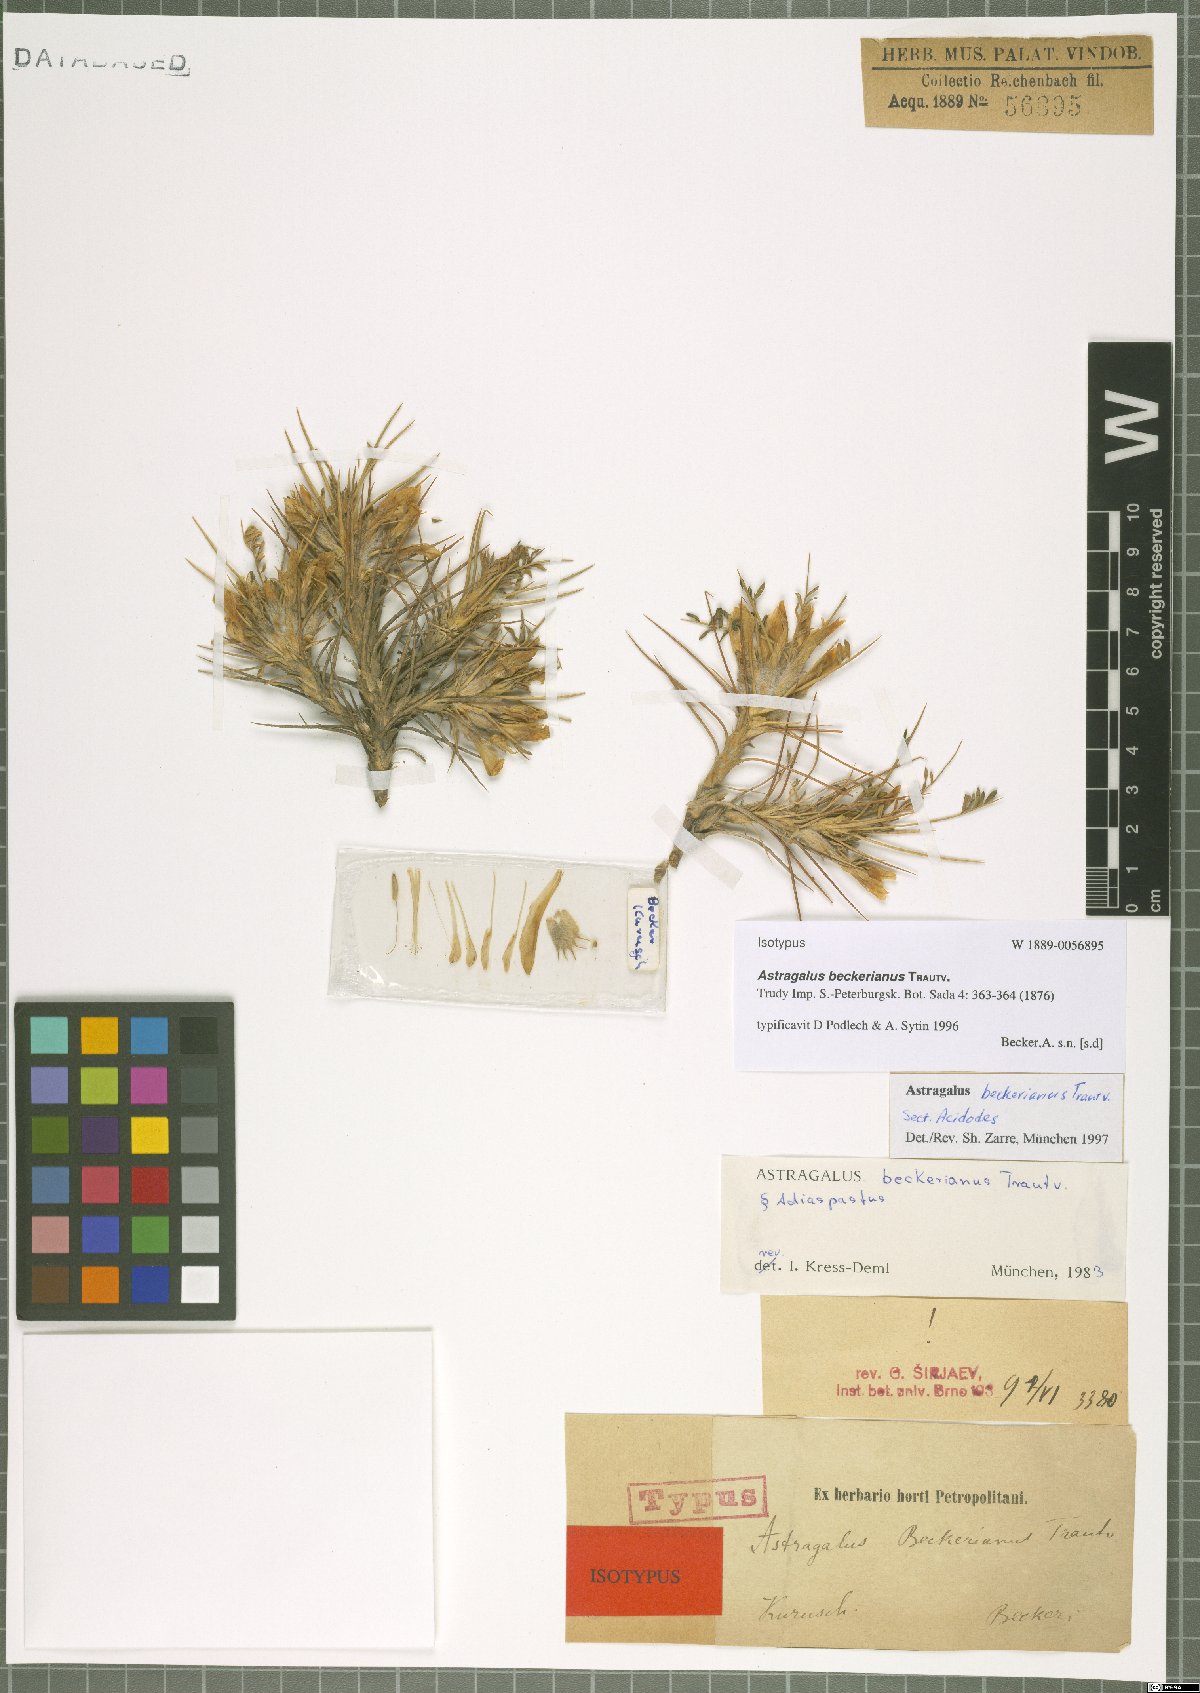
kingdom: Plantae
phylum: Tracheophyta
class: Magnoliopsida
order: Fabales
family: Fabaceae
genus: Astragalus
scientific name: Astragalus beckerianus
